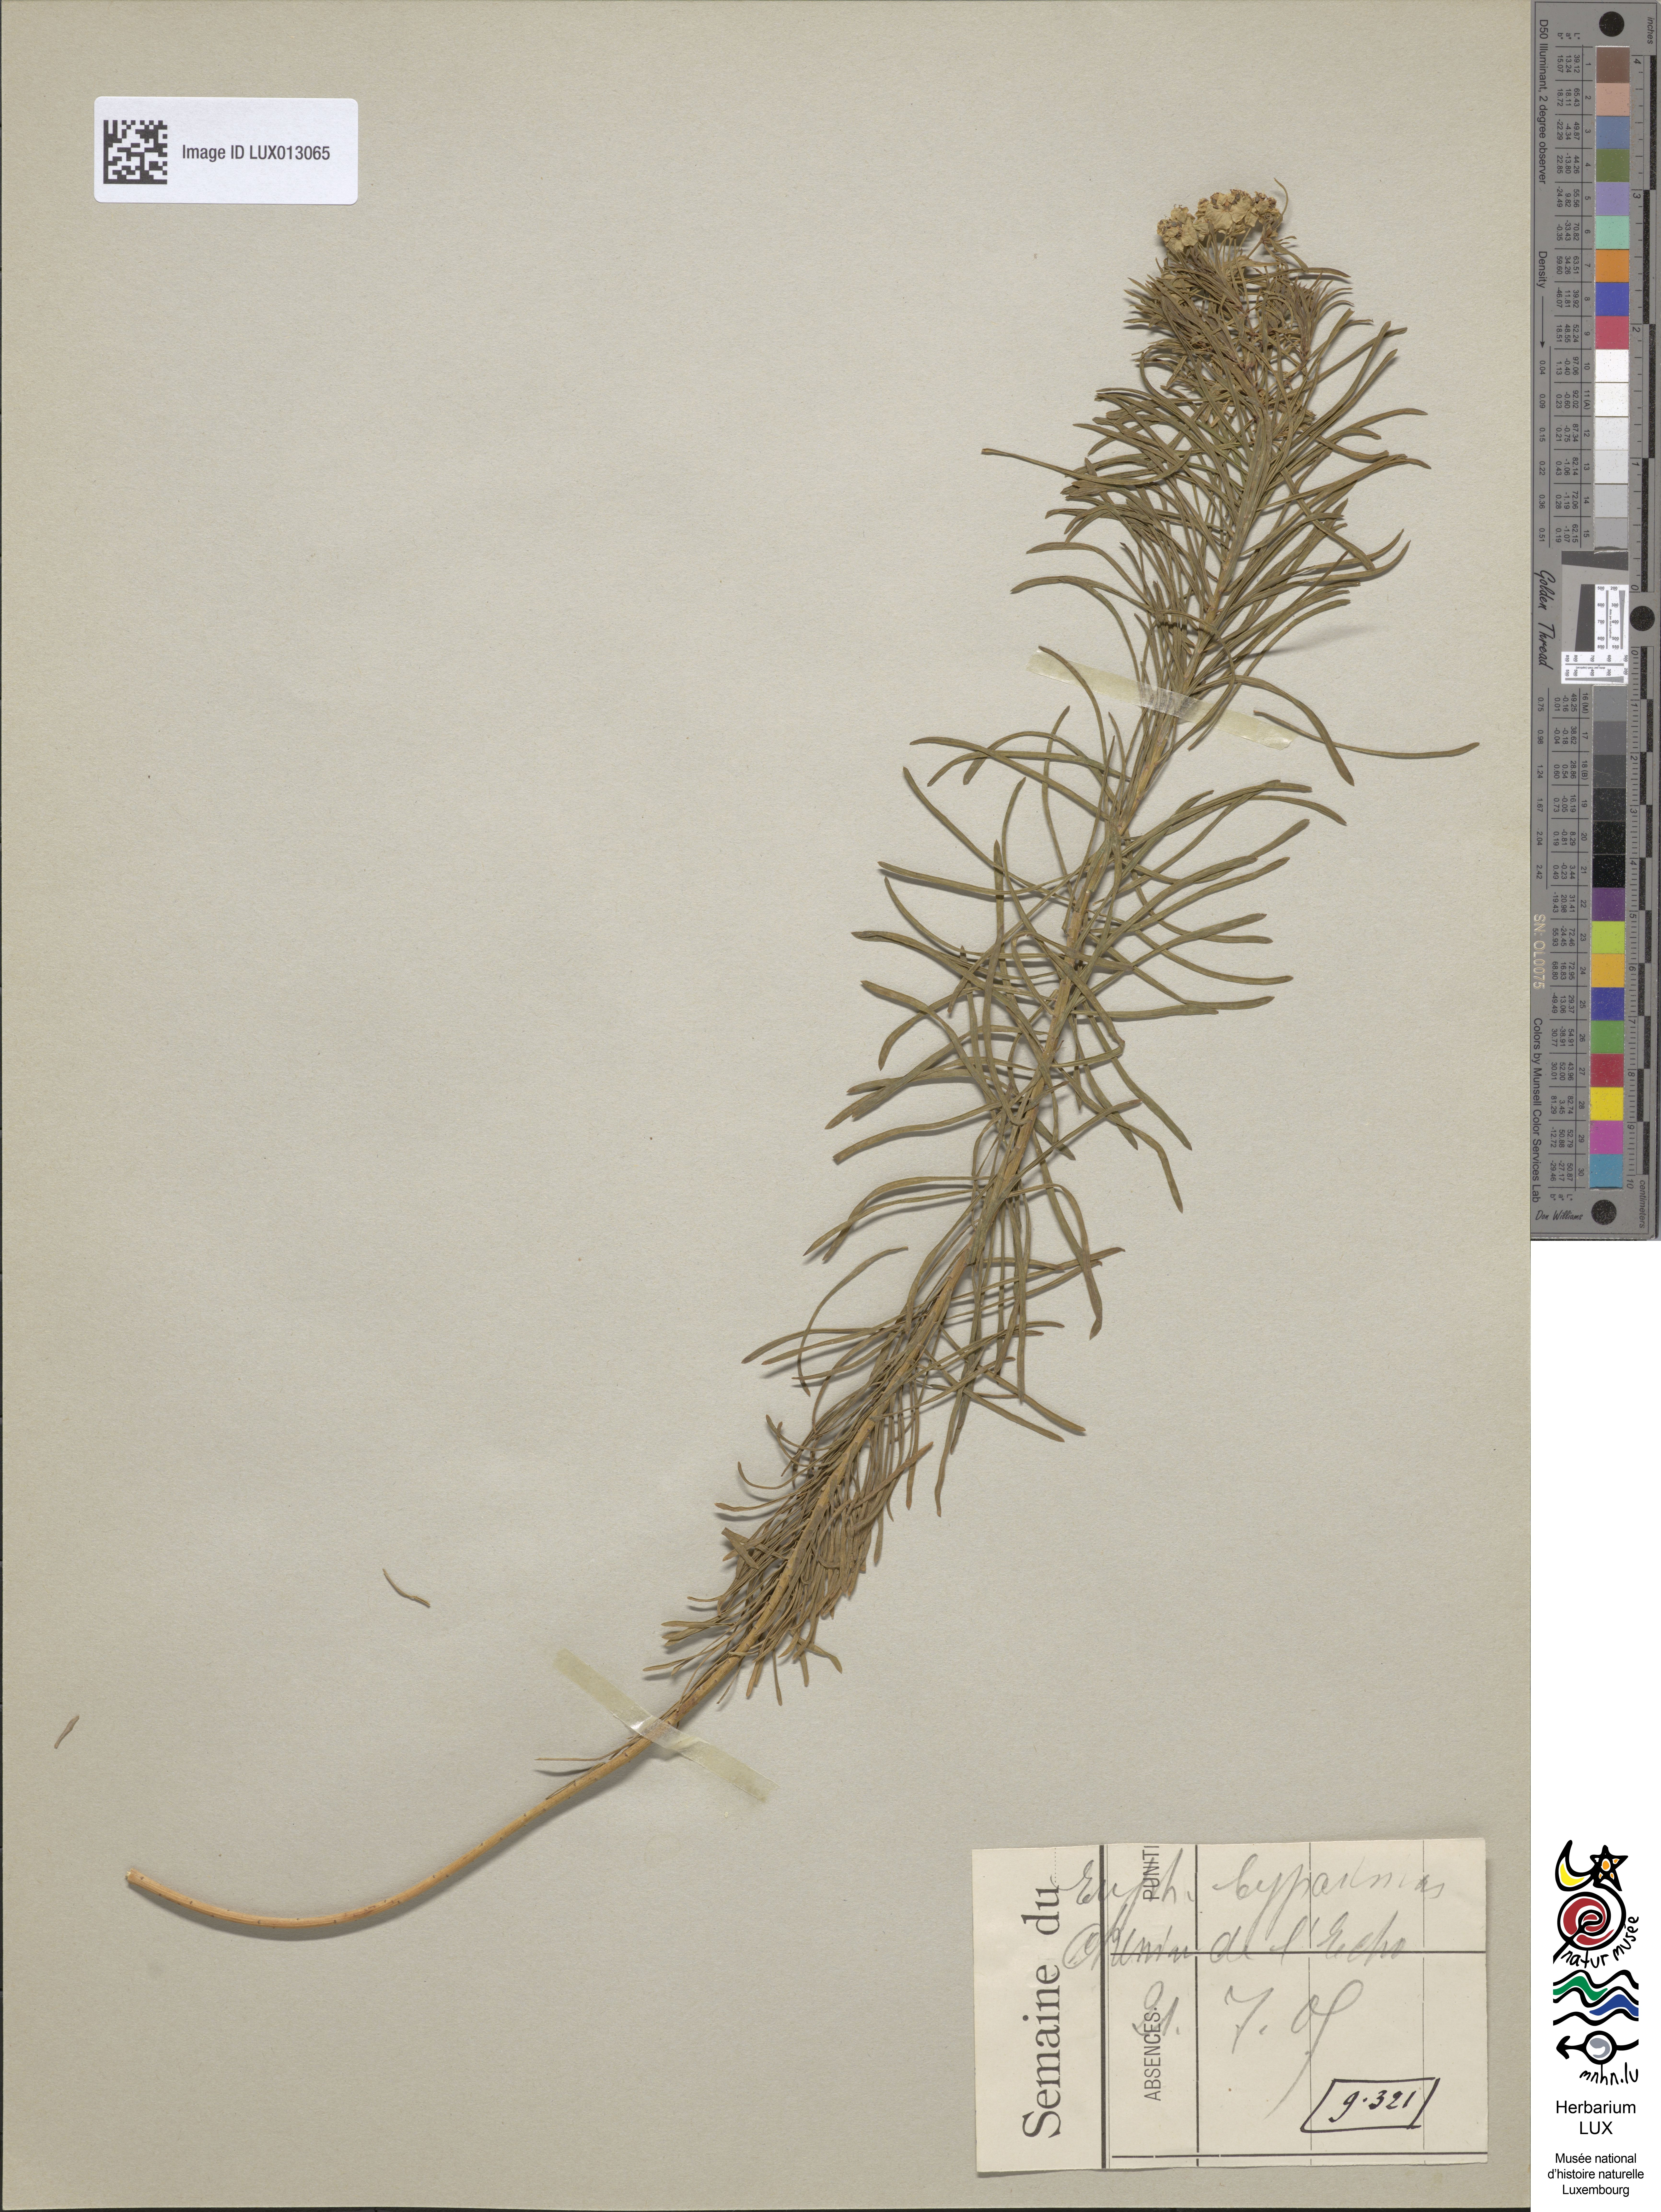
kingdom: Plantae
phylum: Tracheophyta
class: Magnoliopsida
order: Malpighiales
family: Euphorbiaceae
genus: Euphorbia
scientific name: Euphorbia cyparissias
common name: Cypress spurge
